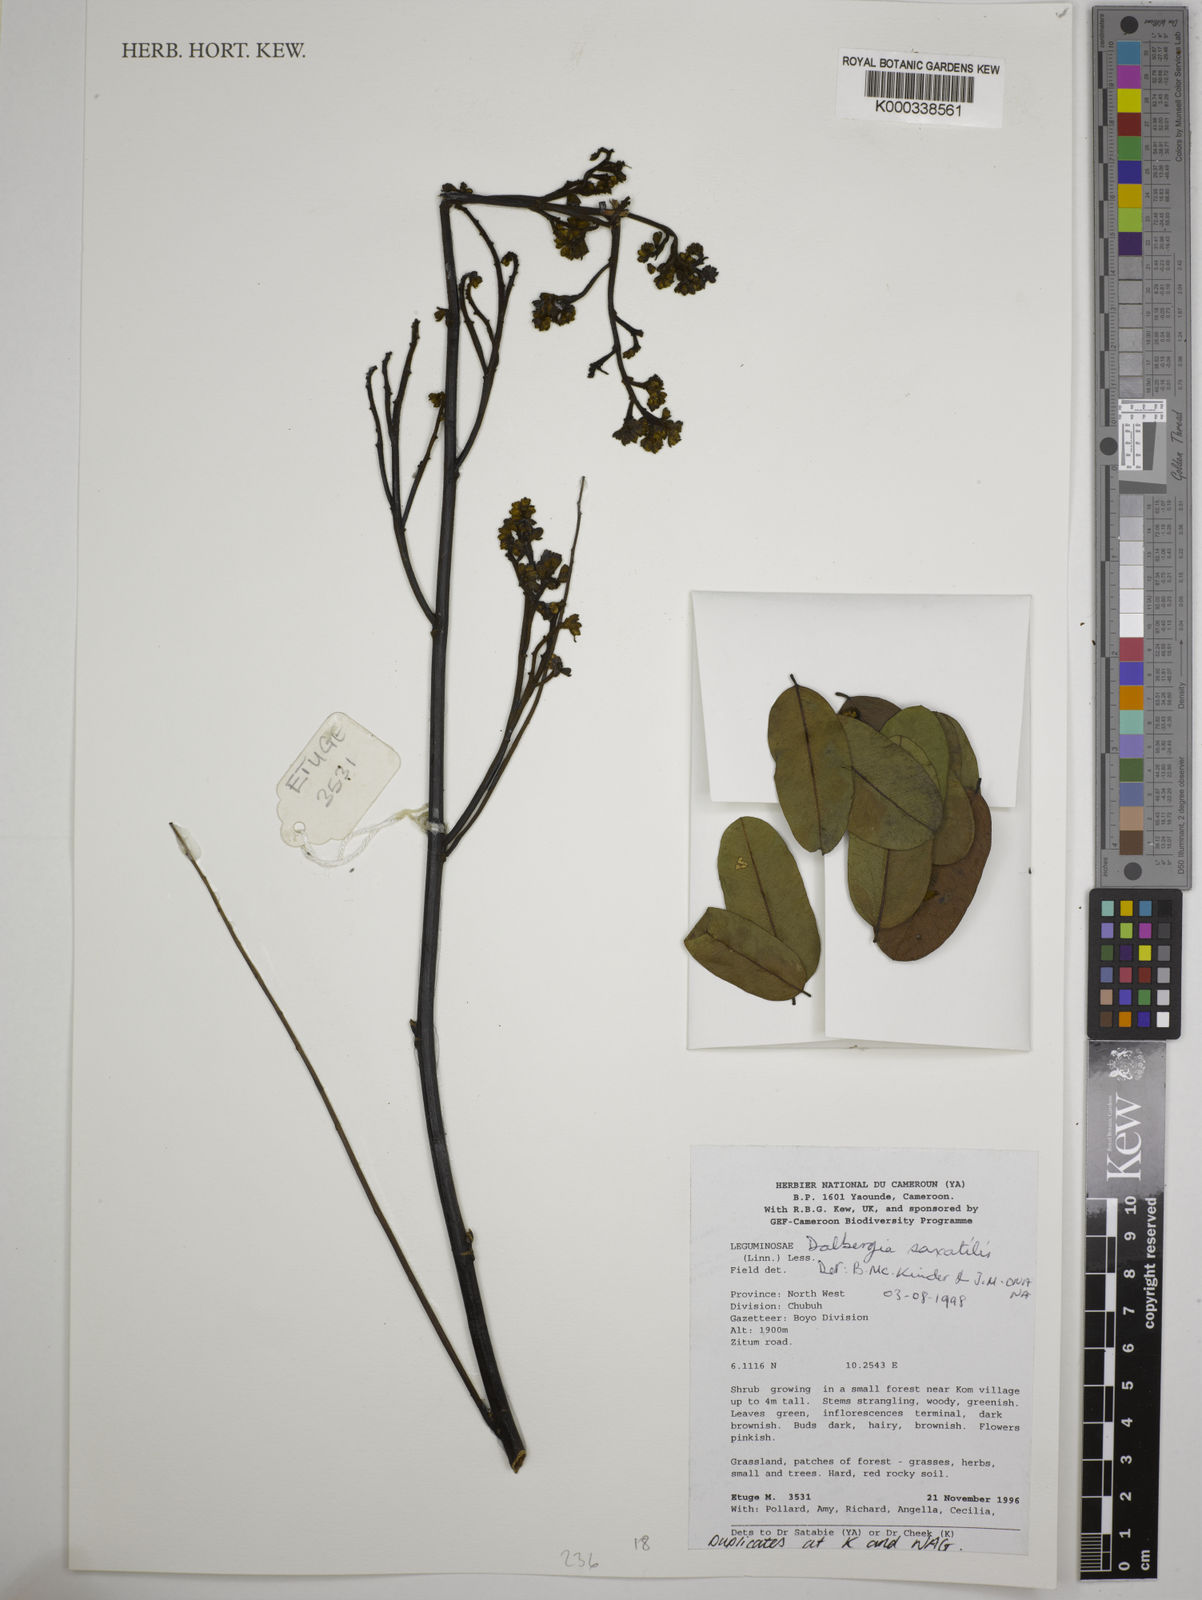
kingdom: Plantae
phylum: Tracheophyta
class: Magnoliopsida
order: Fabales
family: Fabaceae
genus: Dalbergia
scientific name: Dalbergia saxatilis
